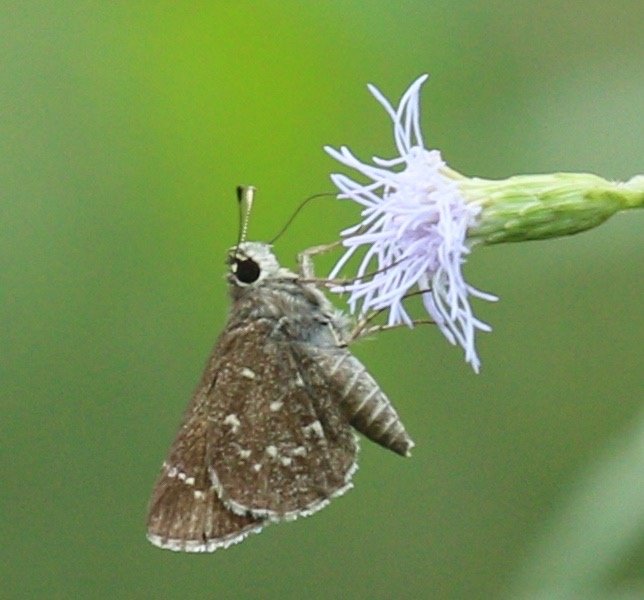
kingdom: Animalia
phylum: Arthropoda
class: Insecta
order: Lepidoptera
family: Hesperiidae
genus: Mastor
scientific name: Mastor celia
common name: Celia's Roadside-Skipper
